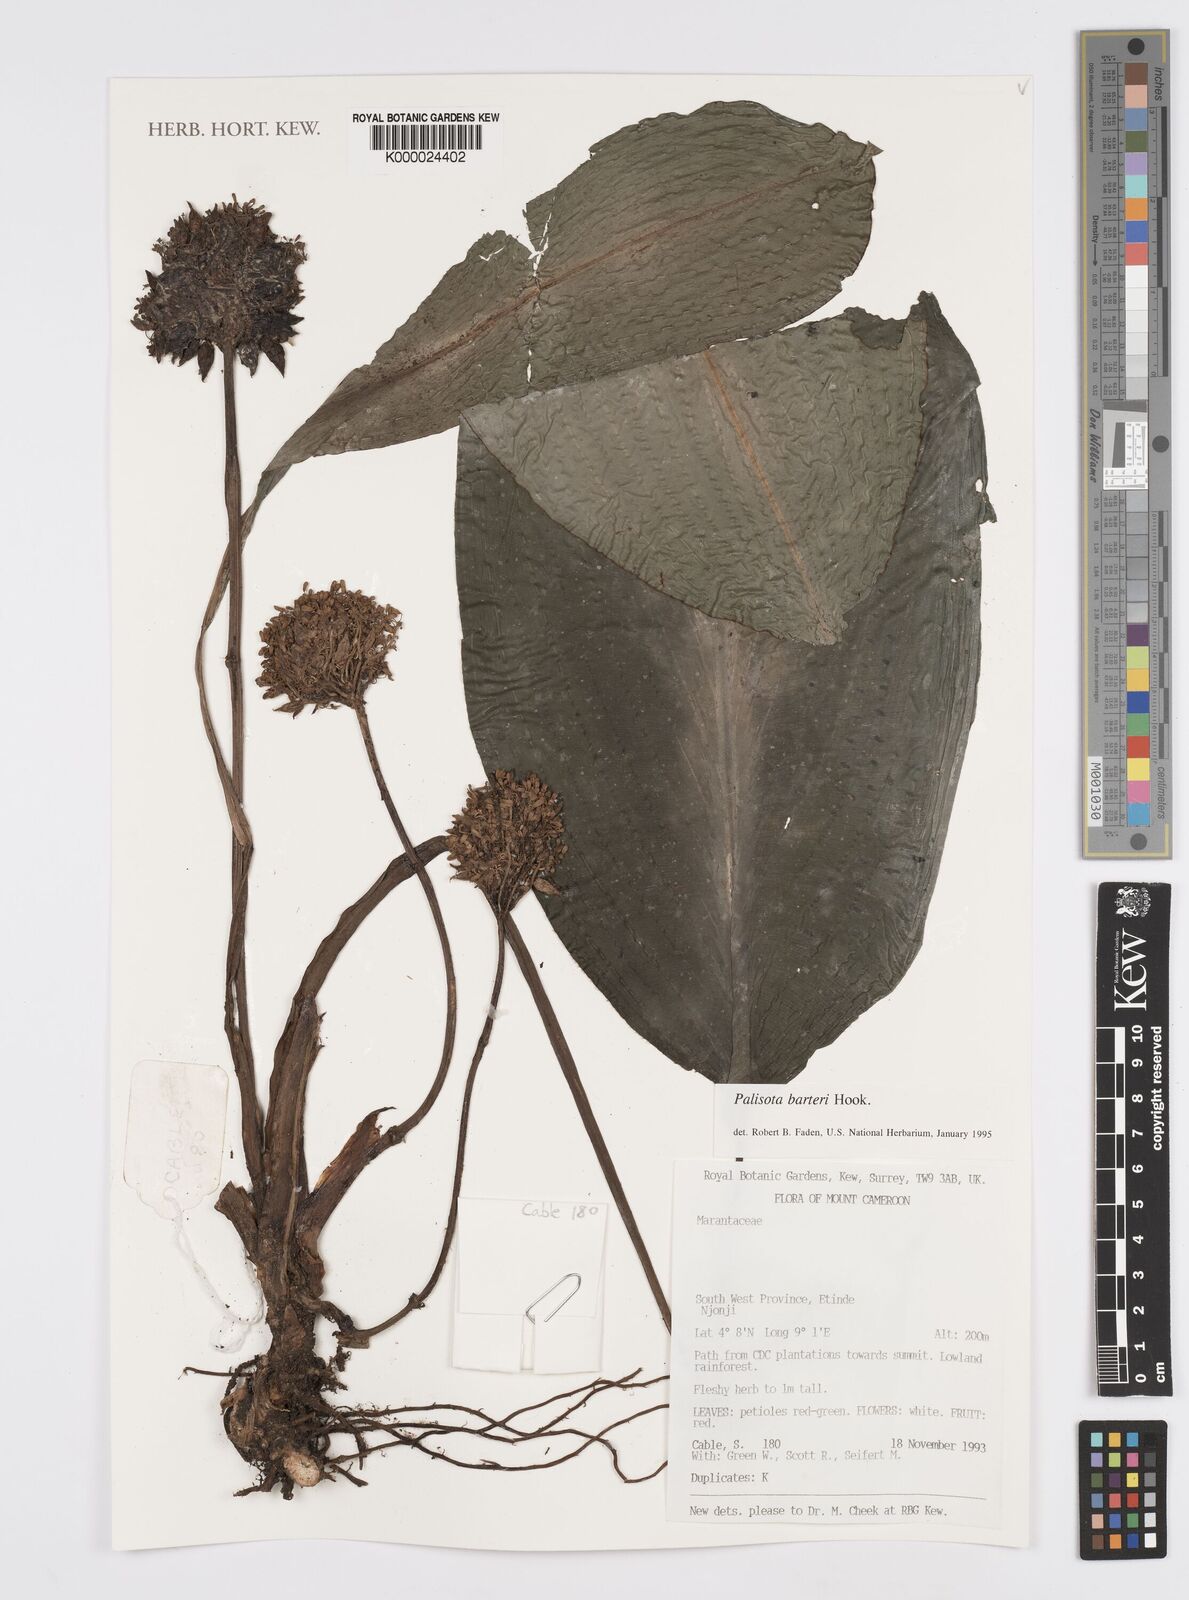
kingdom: Plantae
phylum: Tracheophyta
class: Liliopsida
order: Commelinales
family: Commelinaceae
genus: Palisota
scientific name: Palisota barteri
